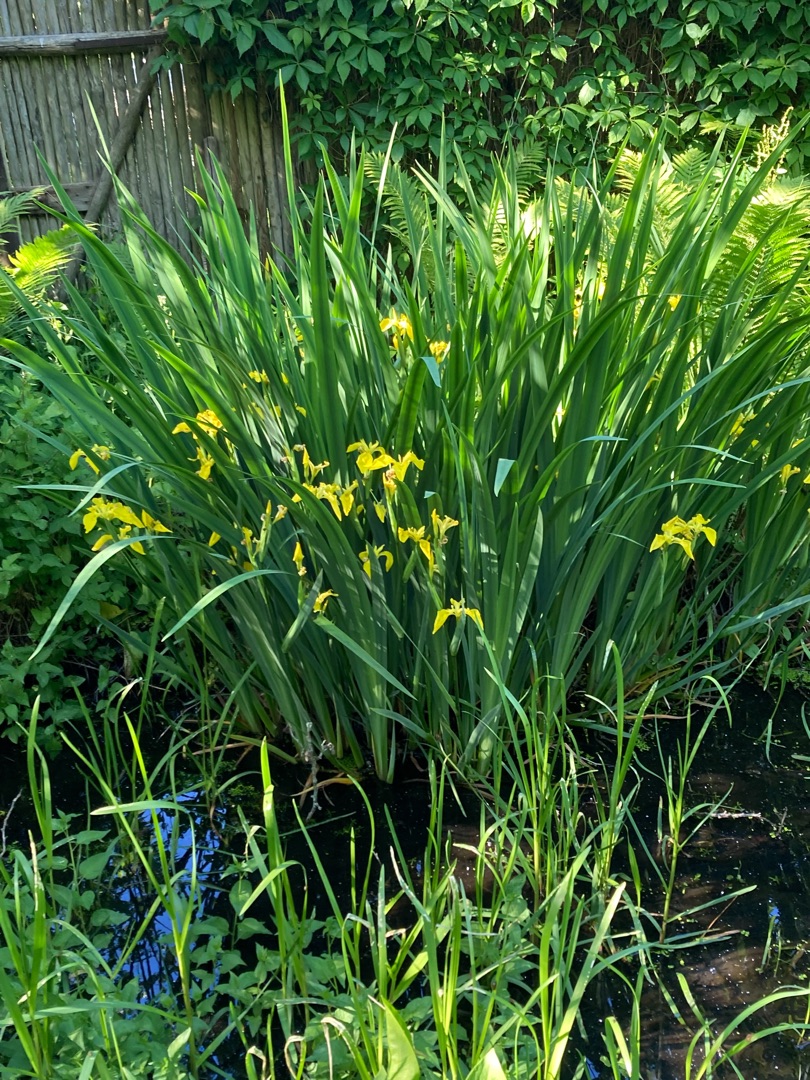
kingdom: Plantae
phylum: Tracheophyta
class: Liliopsida
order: Asparagales
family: Iridaceae
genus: Iris
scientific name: Iris pseudacorus
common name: Gul iris
